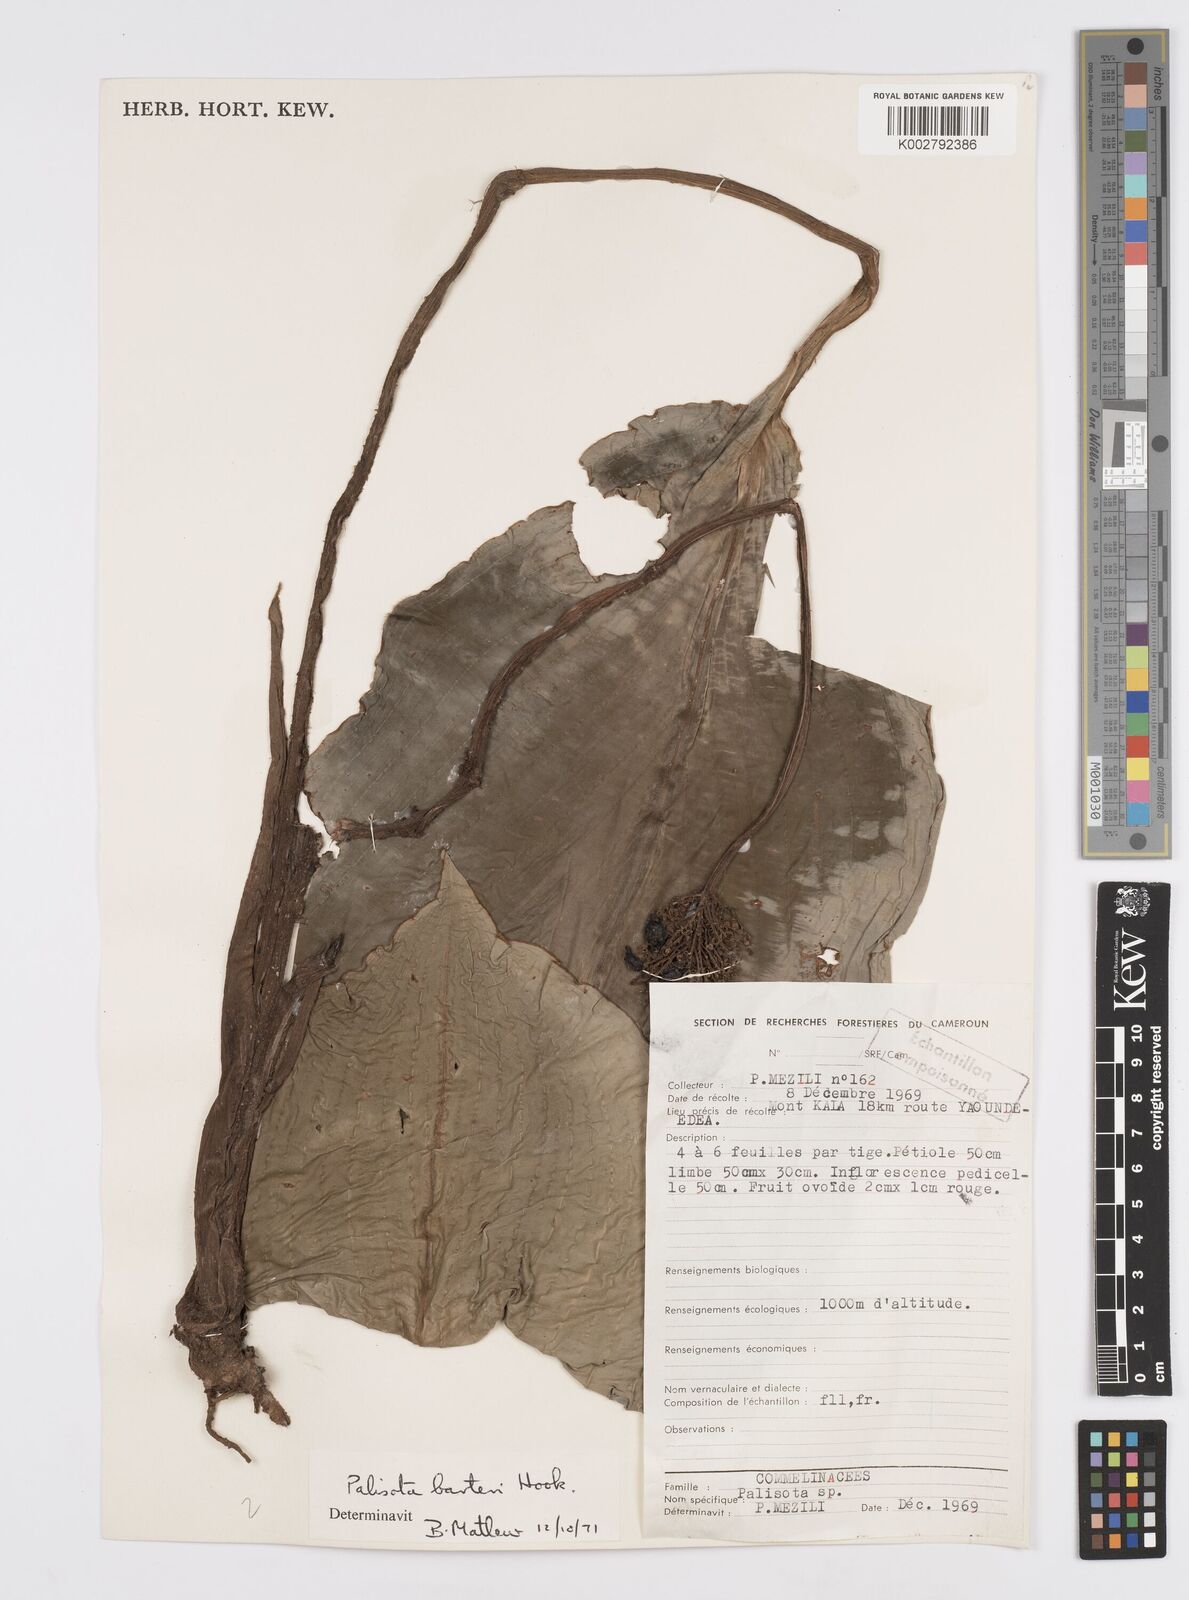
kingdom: Plantae
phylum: Tracheophyta
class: Liliopsida
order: Commelinales
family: Commelinaceae
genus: Palisota
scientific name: Palisota barteri
